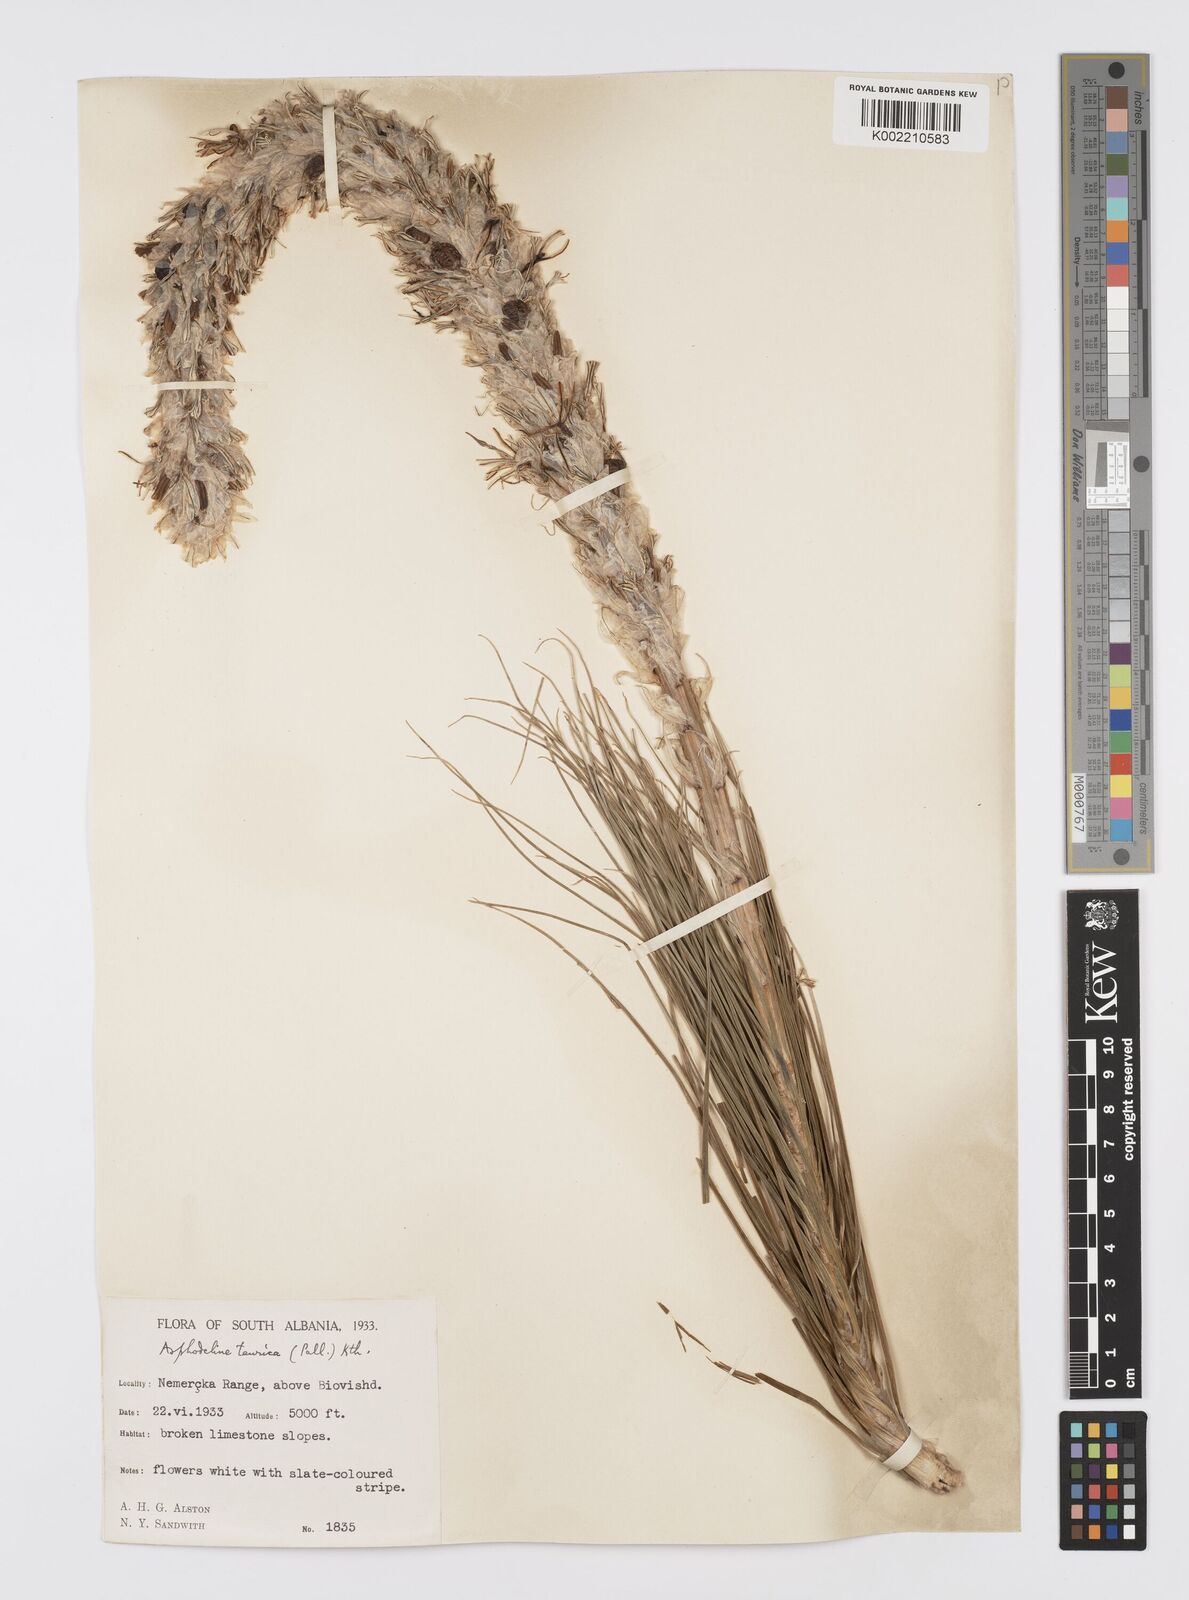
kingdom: Plantae
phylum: Tracheophyta
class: Liliopsida
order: Asparagales
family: Asphodelaceae
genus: Asphodeline
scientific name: Asphodeline taurica
